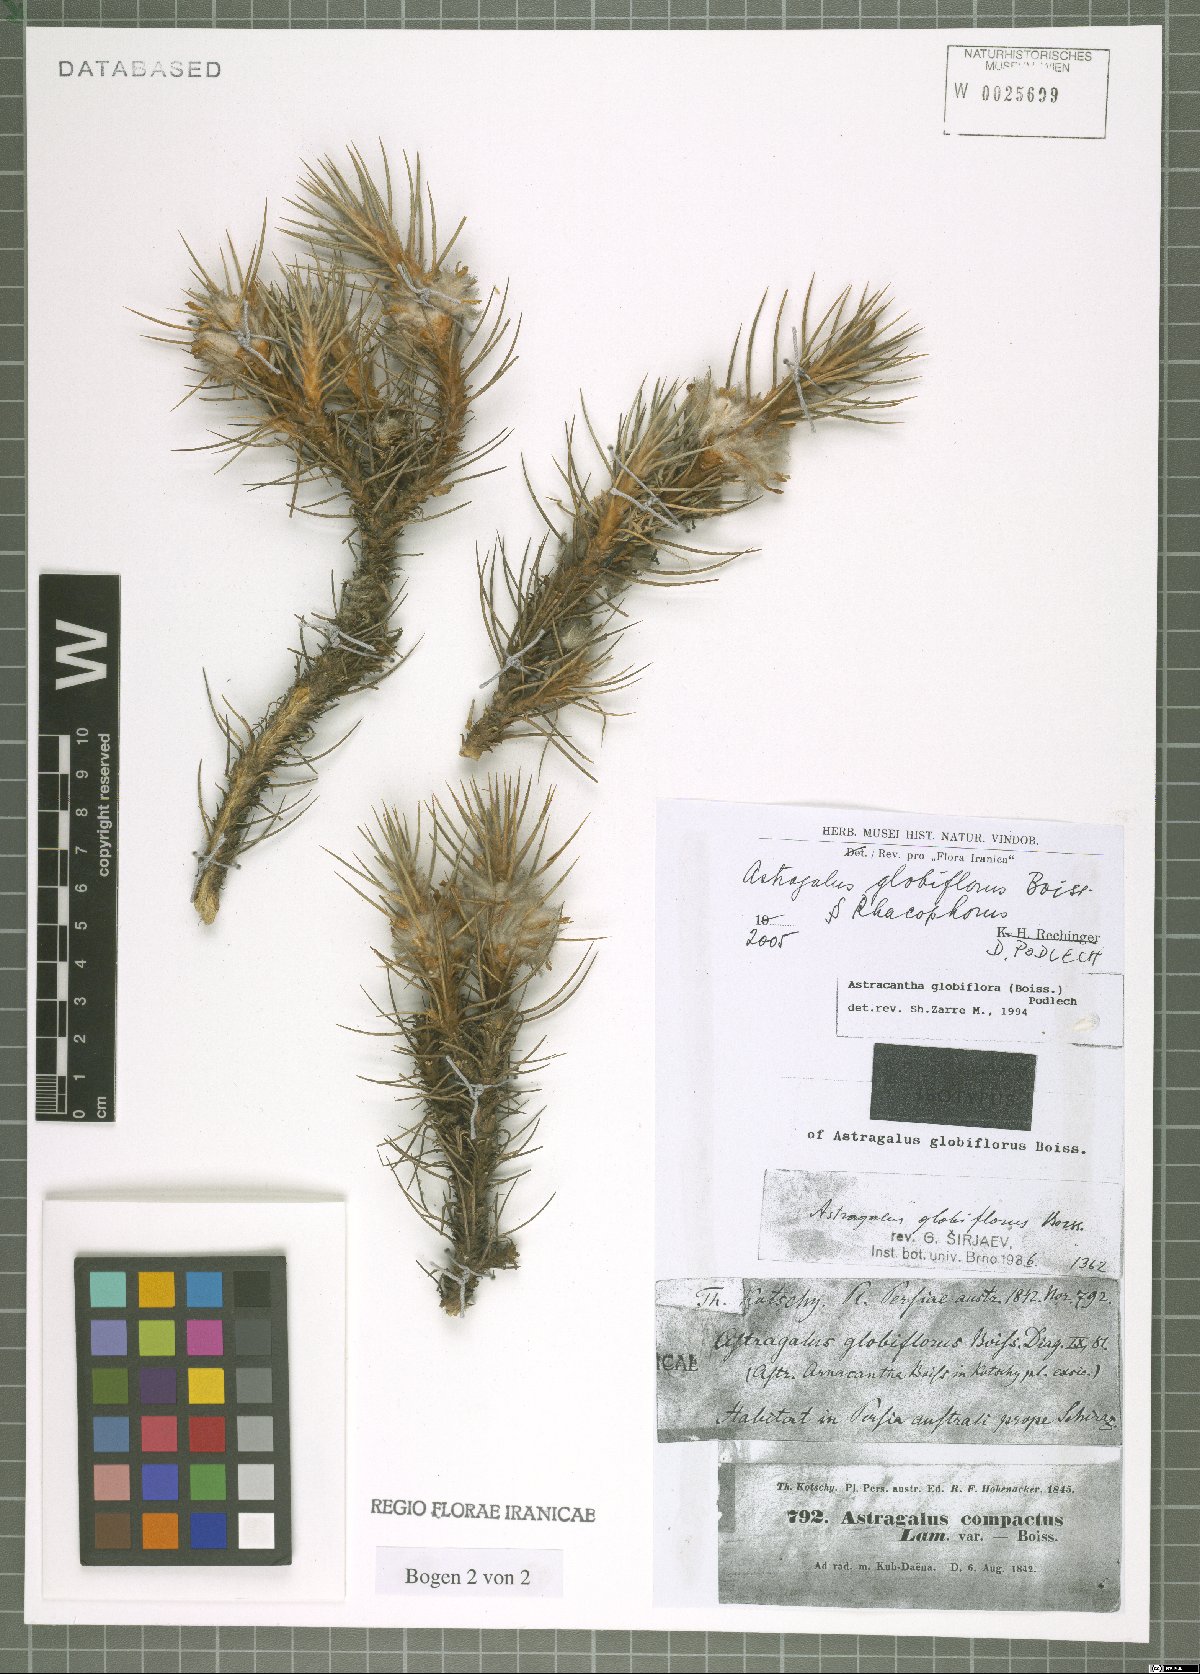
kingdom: Plantae
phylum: Tracheophyta
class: Magnoliopsida
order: Fabales
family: Fabaceae
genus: Astragalus
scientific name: Astragalus globiflorus
